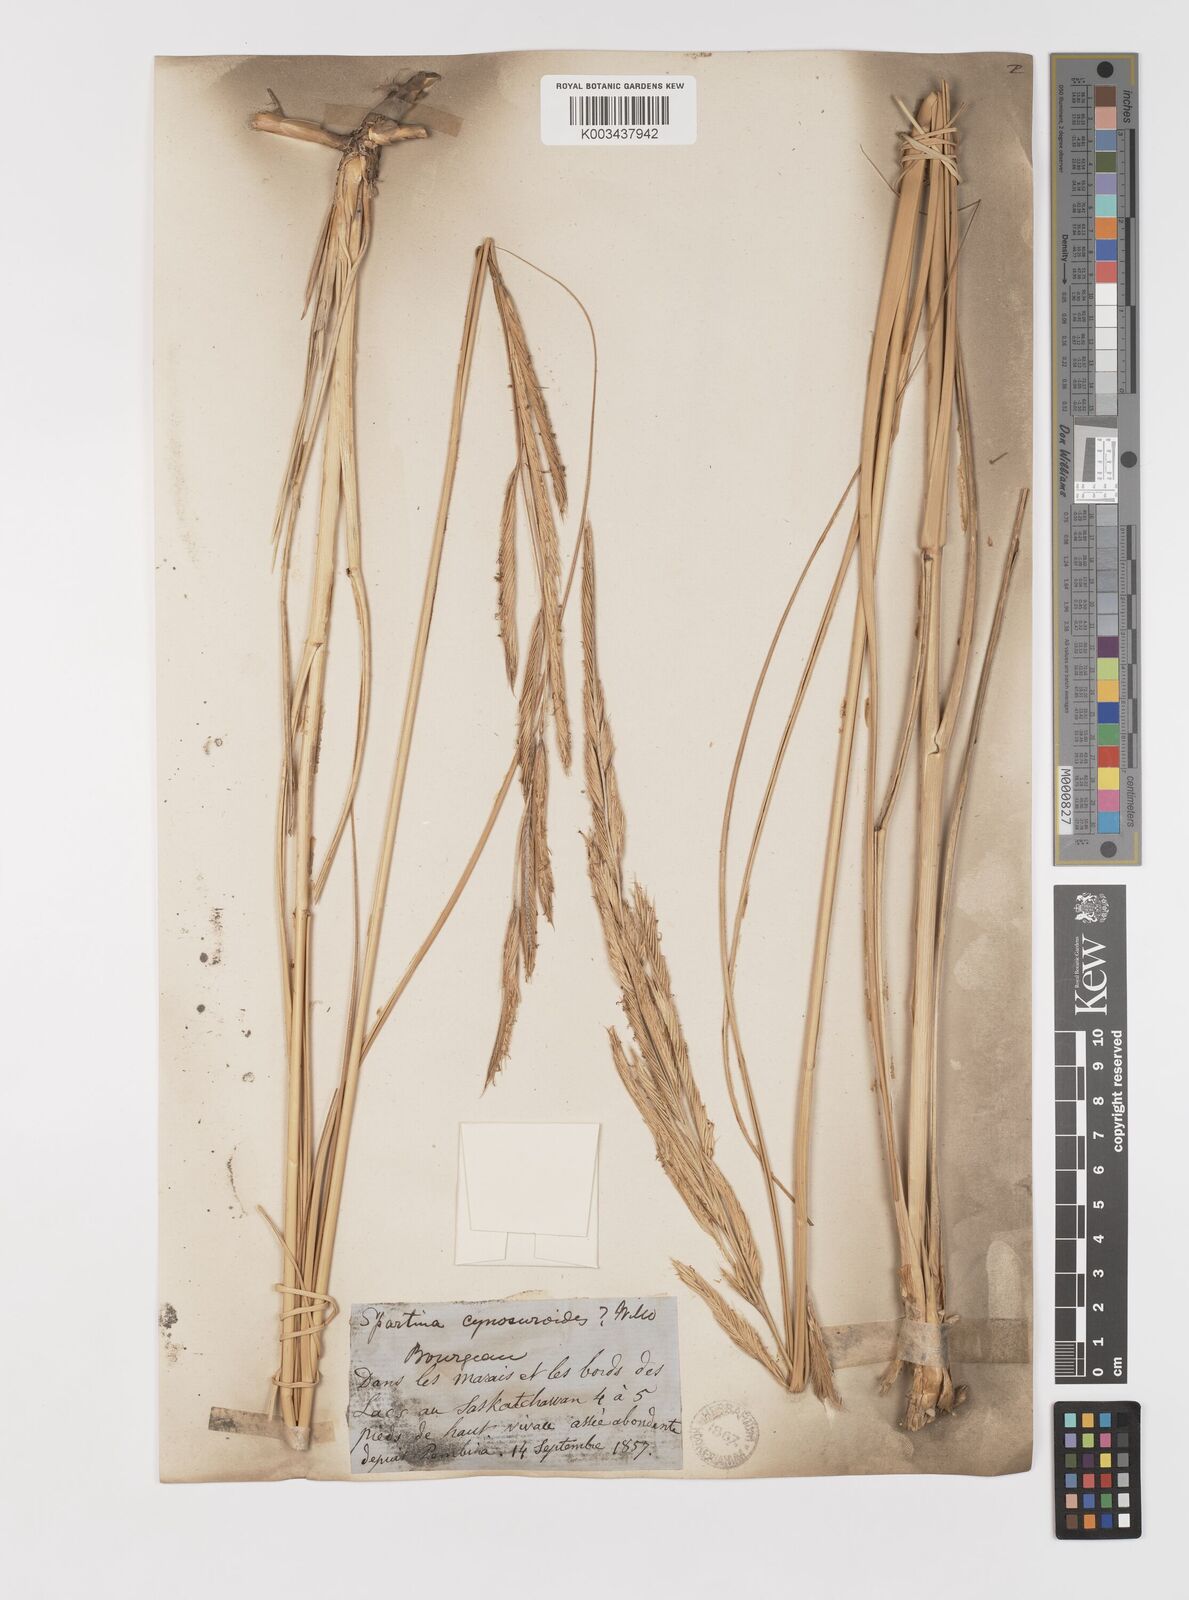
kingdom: Plantae
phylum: Tracheophyta
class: Liliopsida
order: Poales
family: Poaceae
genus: Sporobolus
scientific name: Sporobolus michauxianus
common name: Freshwater cordgrass
